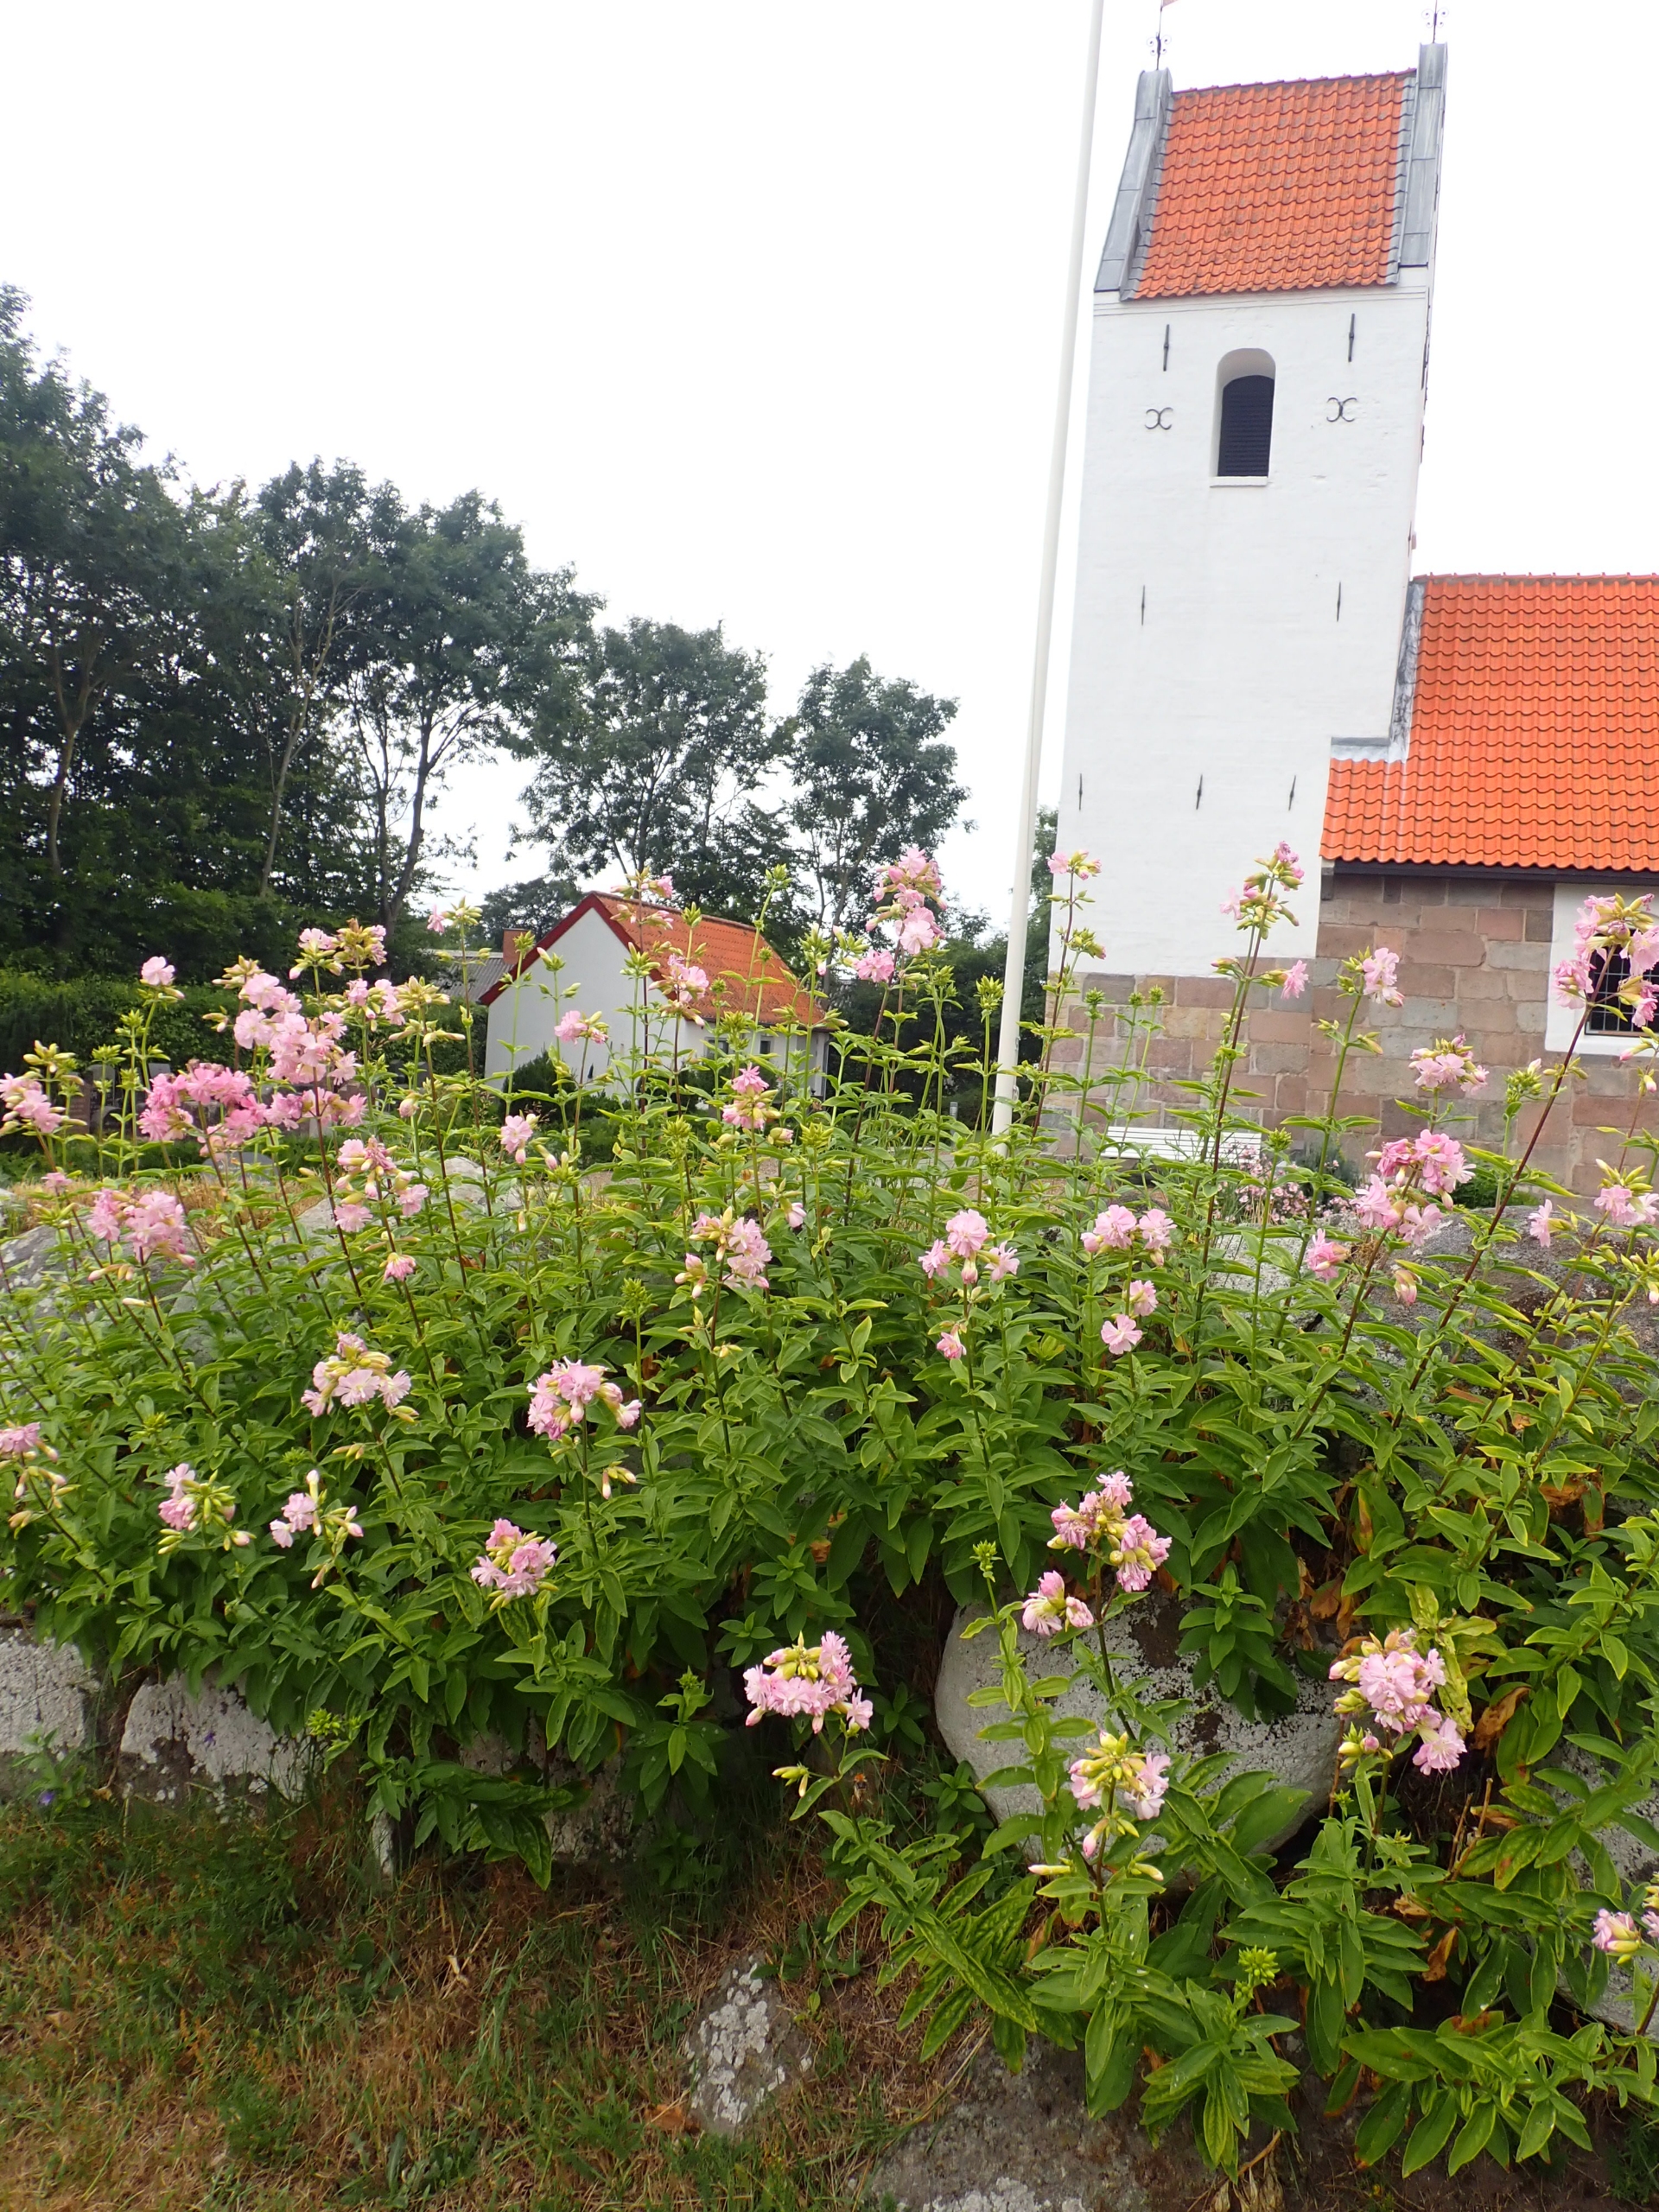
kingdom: Plantae
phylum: Tracheophyta
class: Magnoliopsida
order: Caryophyllales
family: Caryophyllaceae
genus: Saponaria
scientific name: Saponaria officinalis
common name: Sæbeurt
